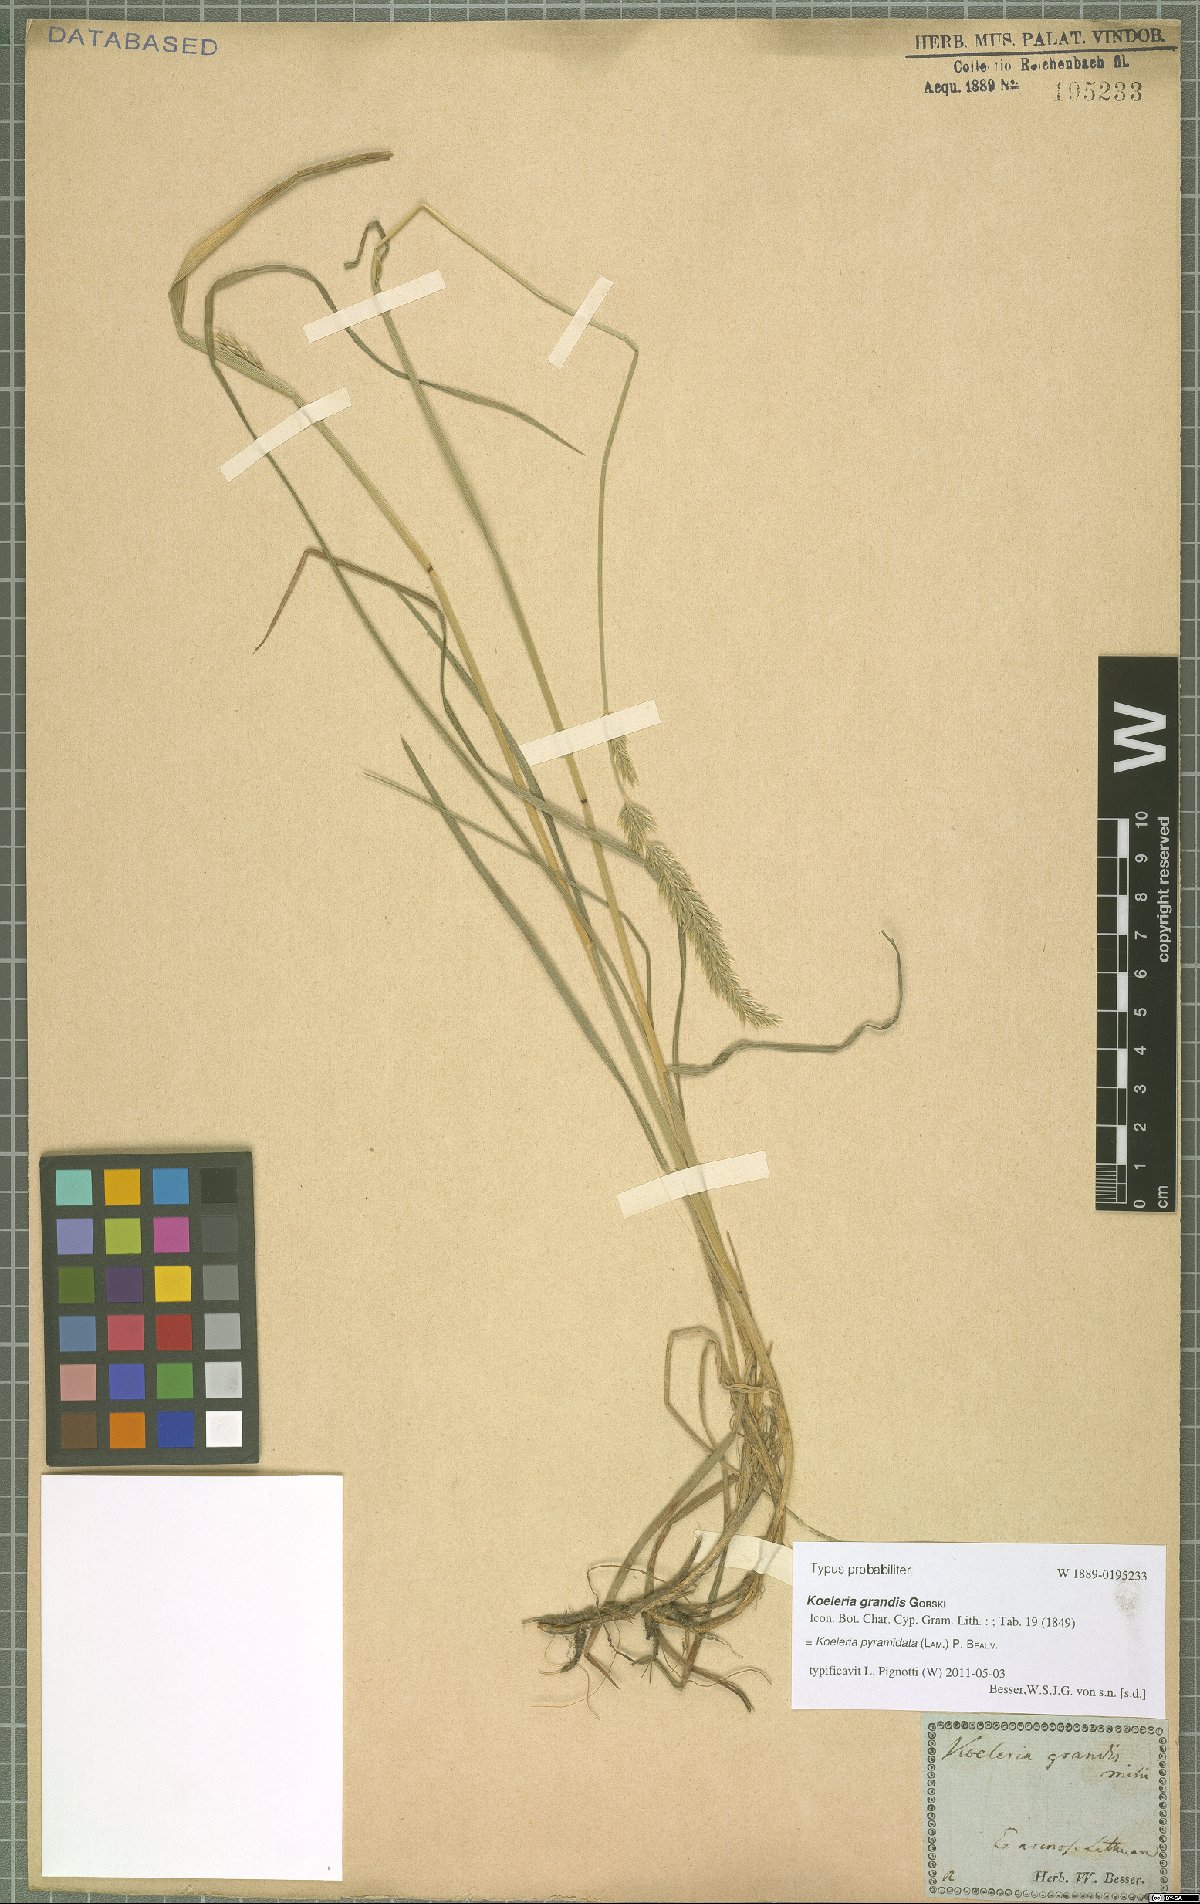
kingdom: Plantae
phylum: Tracheophyta
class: Liliopsida
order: Poales
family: Poaceae
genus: Koeleria
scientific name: Koeleria pyramidata
